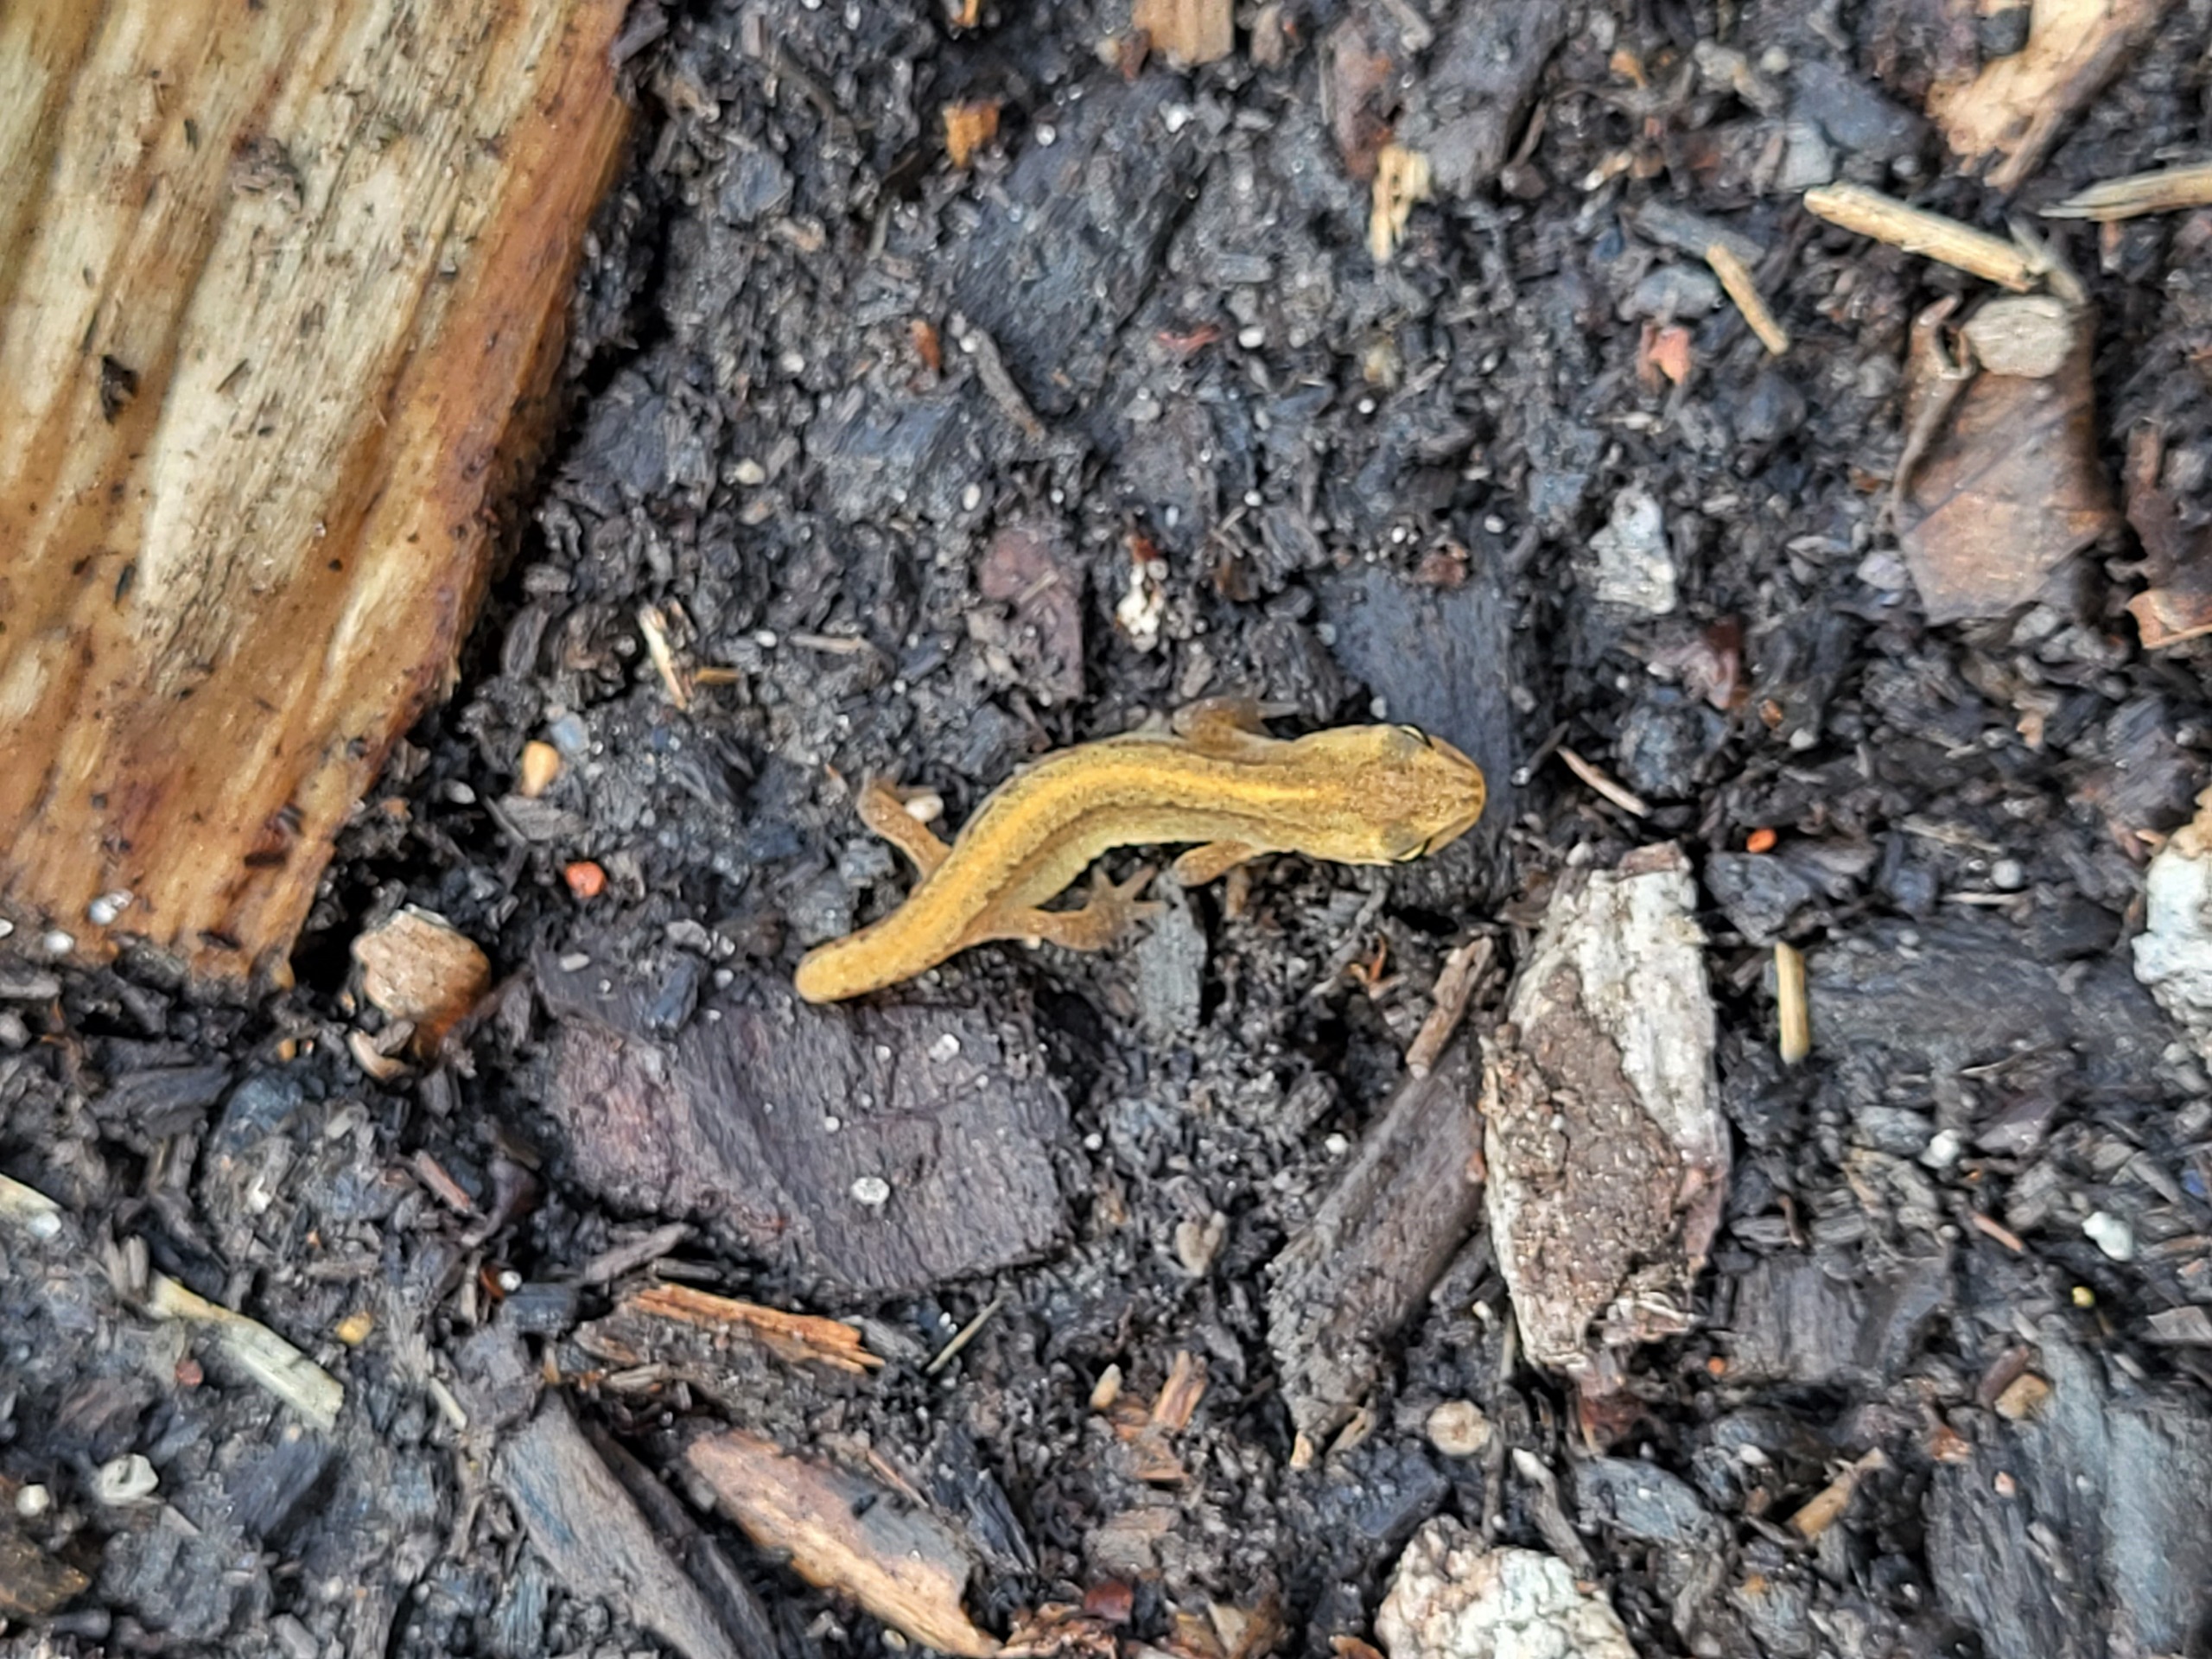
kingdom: Animalia
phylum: Chordata
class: Amphibia
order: Caudata
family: Salamandridae
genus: Lissotriton
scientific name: Lissotriton vulgaris
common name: Lille vandsalamander
